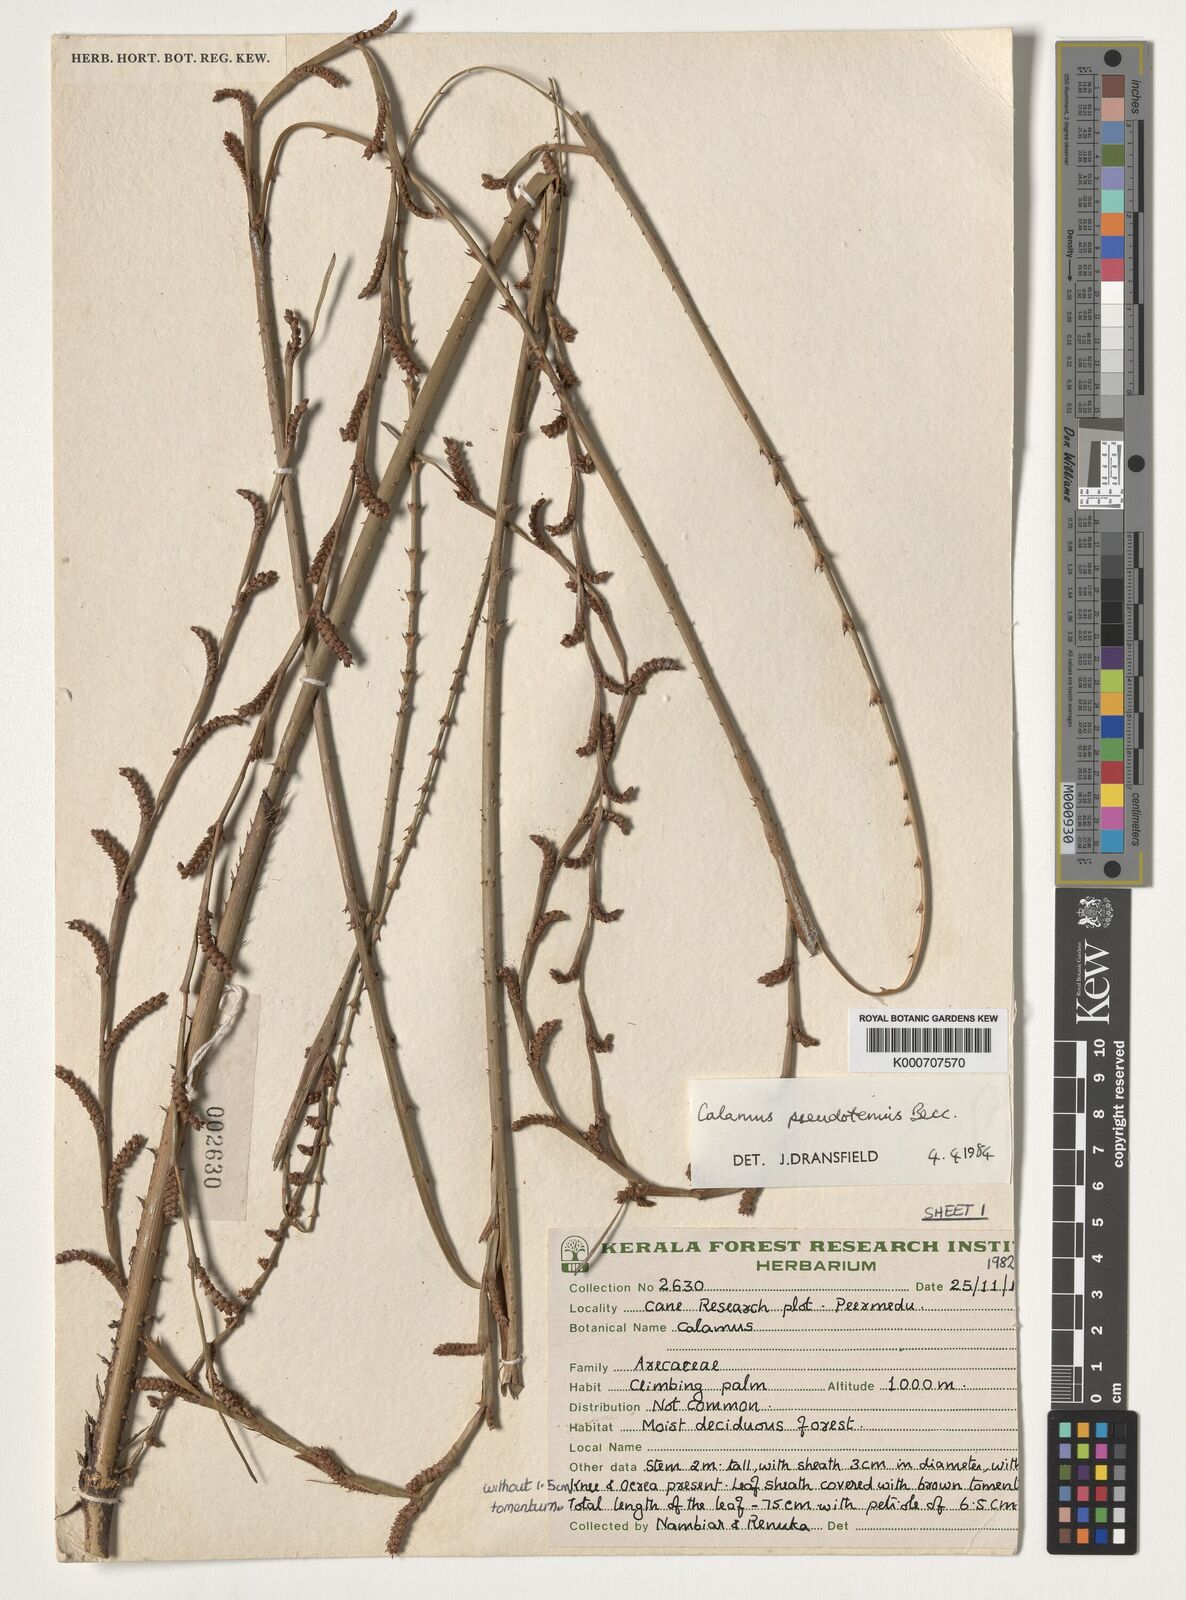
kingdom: Plantae
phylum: Tracheophyta
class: Liliopsida
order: Arecales
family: Arecaceae
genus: Calamus
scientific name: Calamus pseudotenuis
